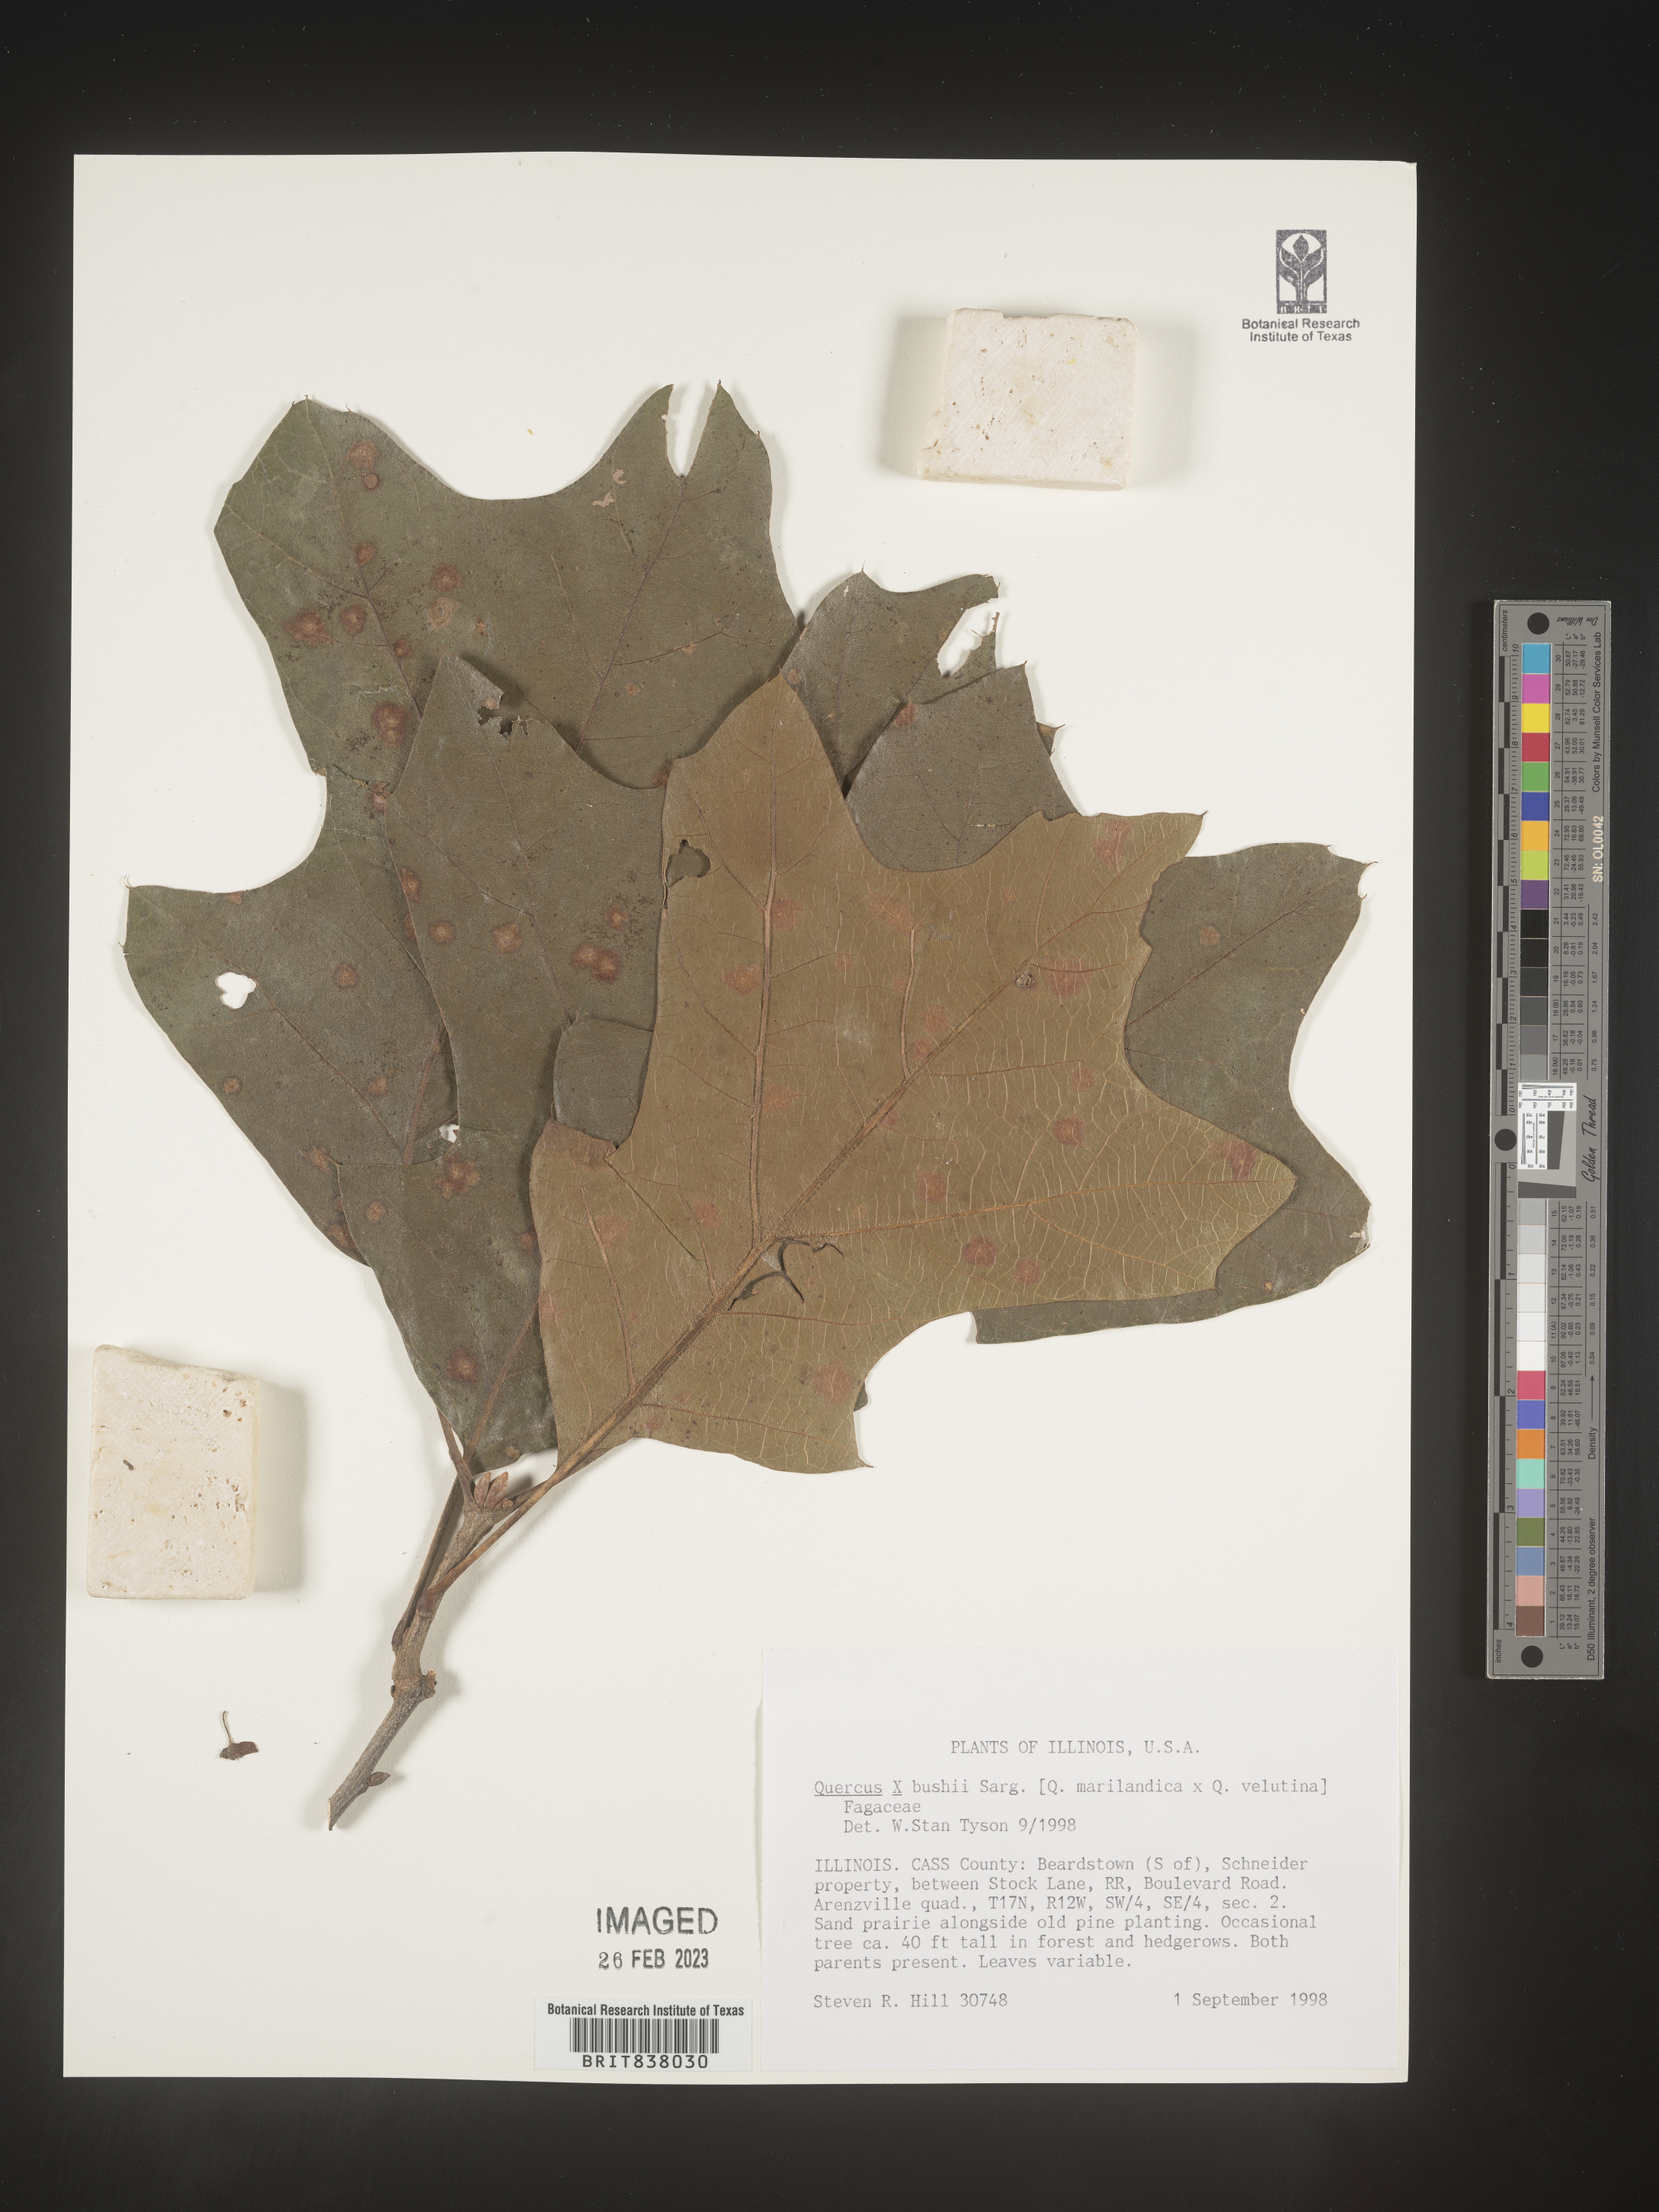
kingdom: Plantae
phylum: Tracheophyta
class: Magnoliopsida
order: Fagales
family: Fagaceae
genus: Quercus
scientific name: Quercus
